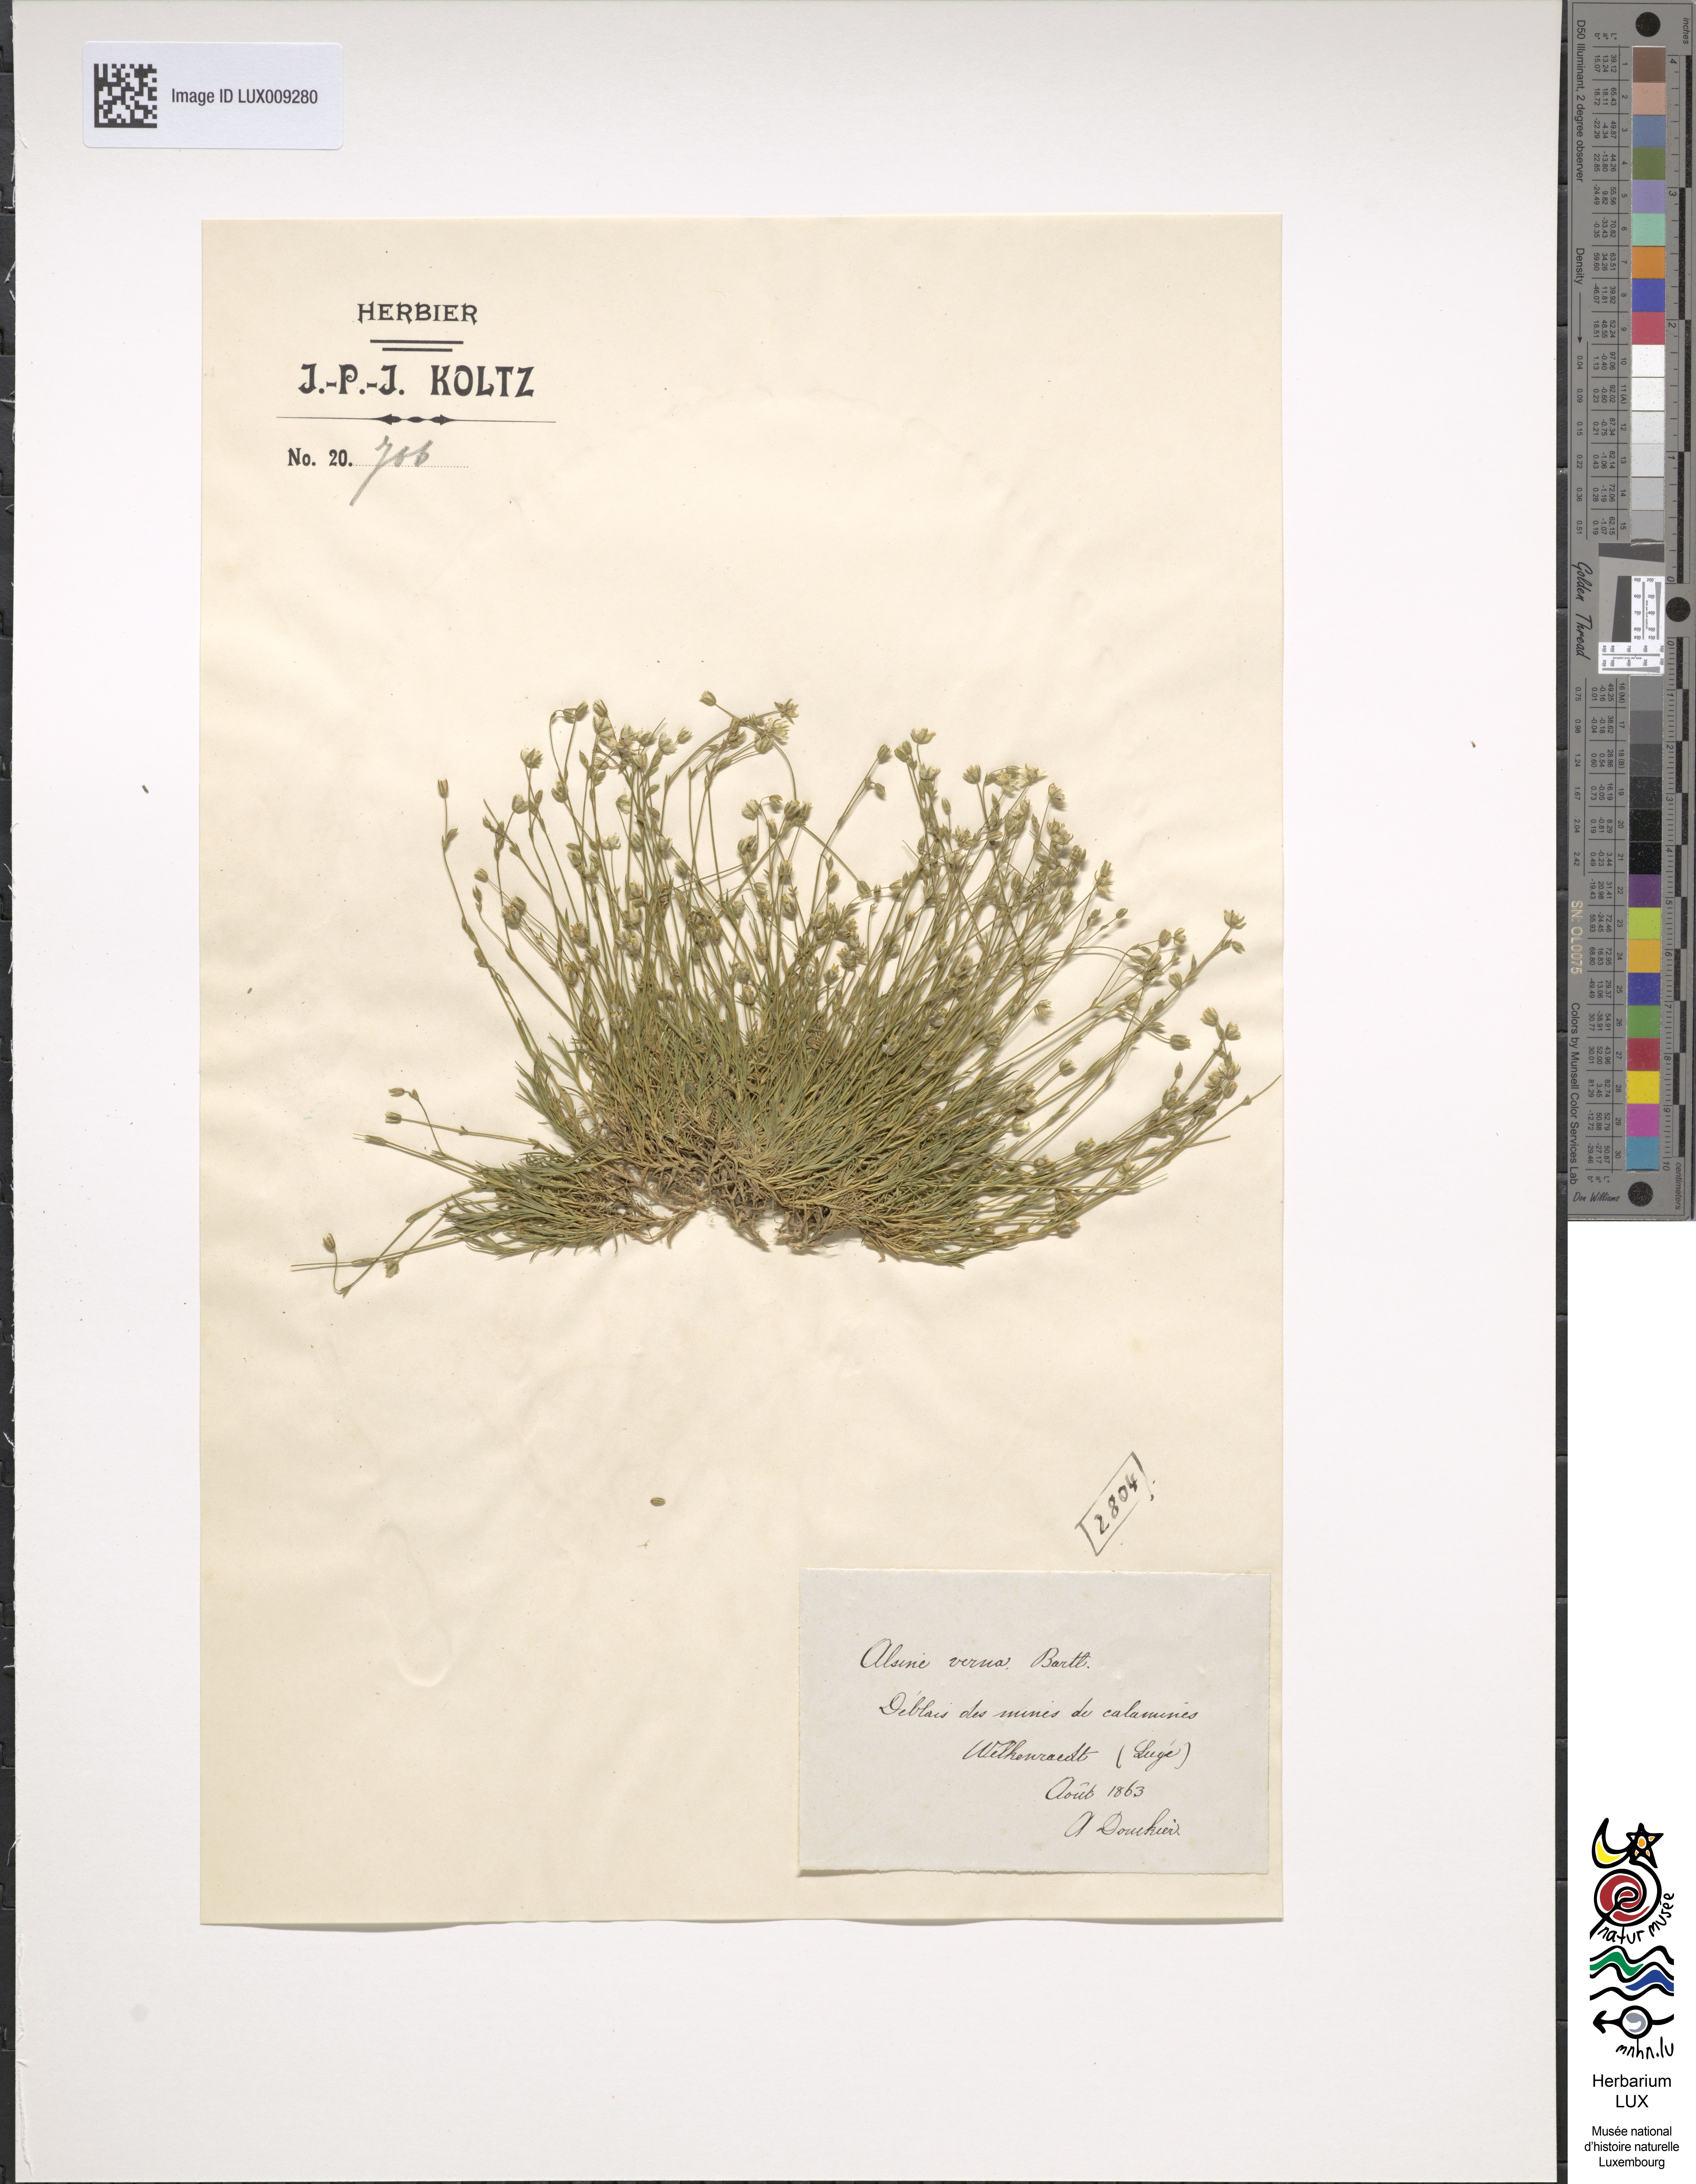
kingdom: Plantae
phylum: Tracheophyta
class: Magnoliopsida
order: Caryophyllales
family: Caryophyllaceae
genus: Sabulina
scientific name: Sabulina verna
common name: Spring sandwort
